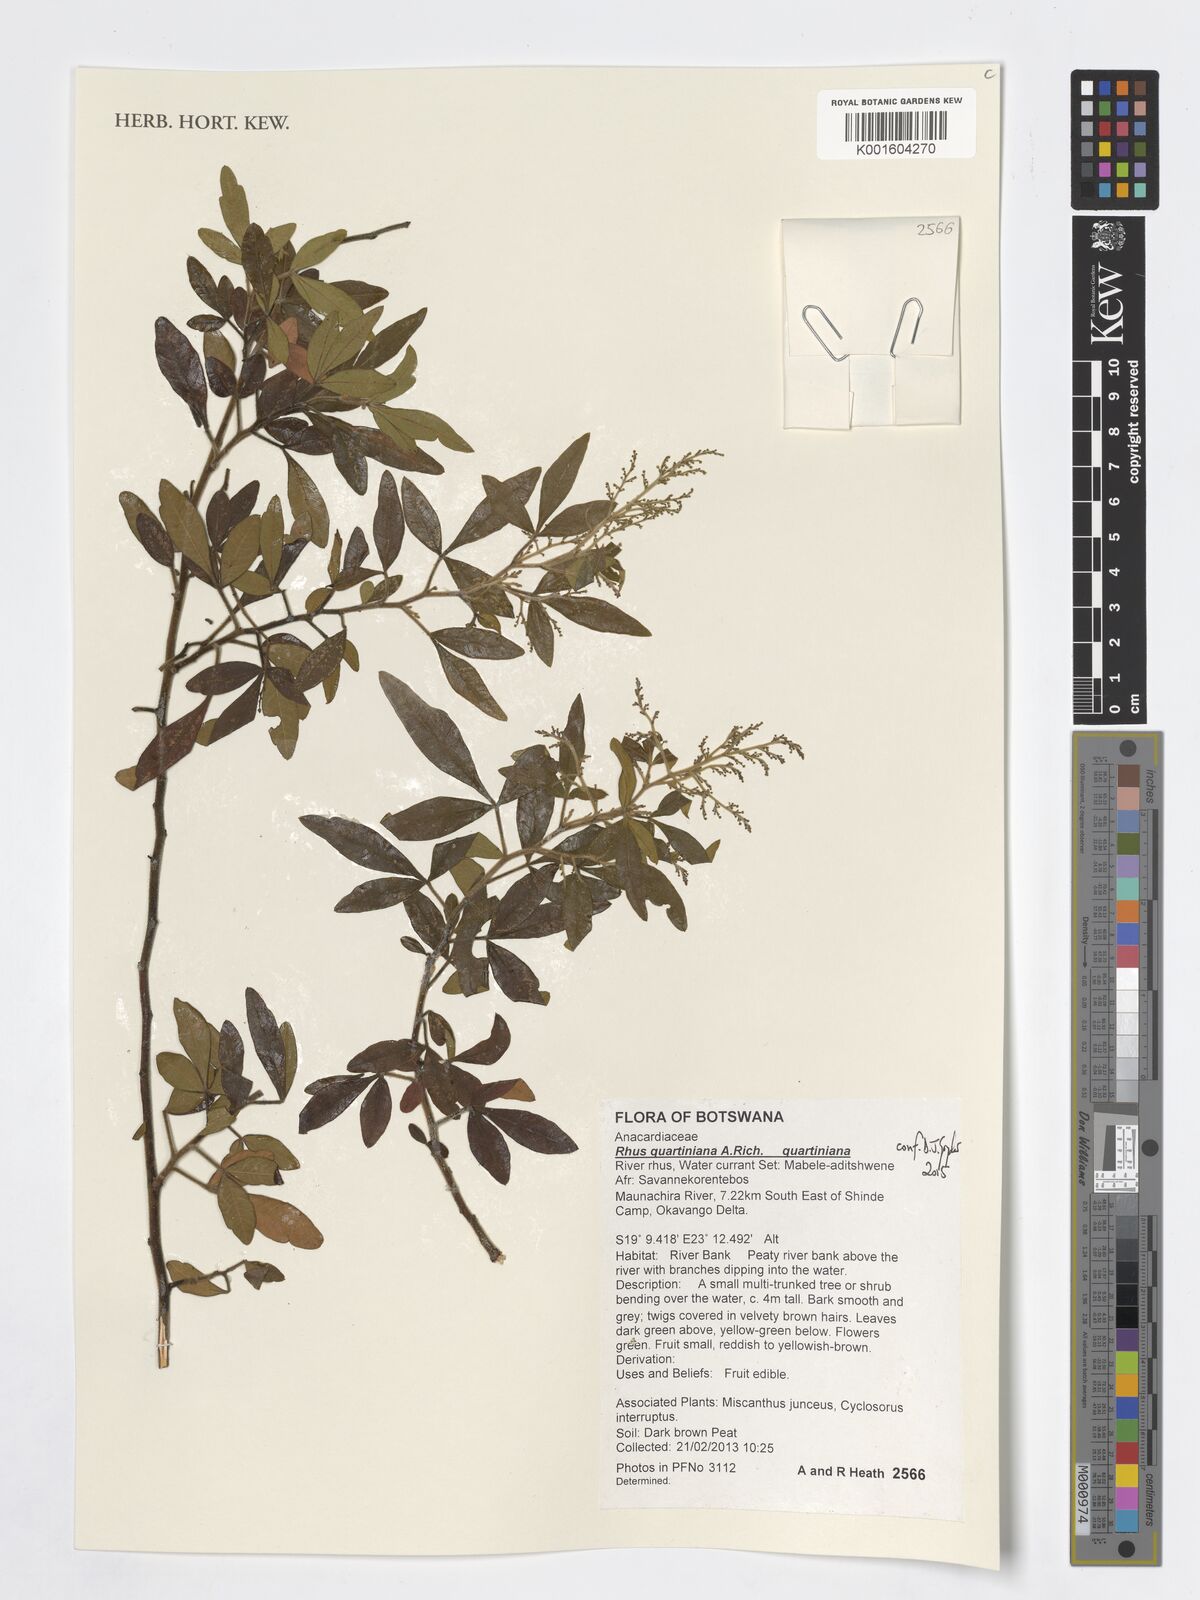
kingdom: Plantae
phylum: Tracheophyta
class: Magnoliopsida
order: Sapindales
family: Anacardiaceae
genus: Searsia
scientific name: Searsia quartiniana
